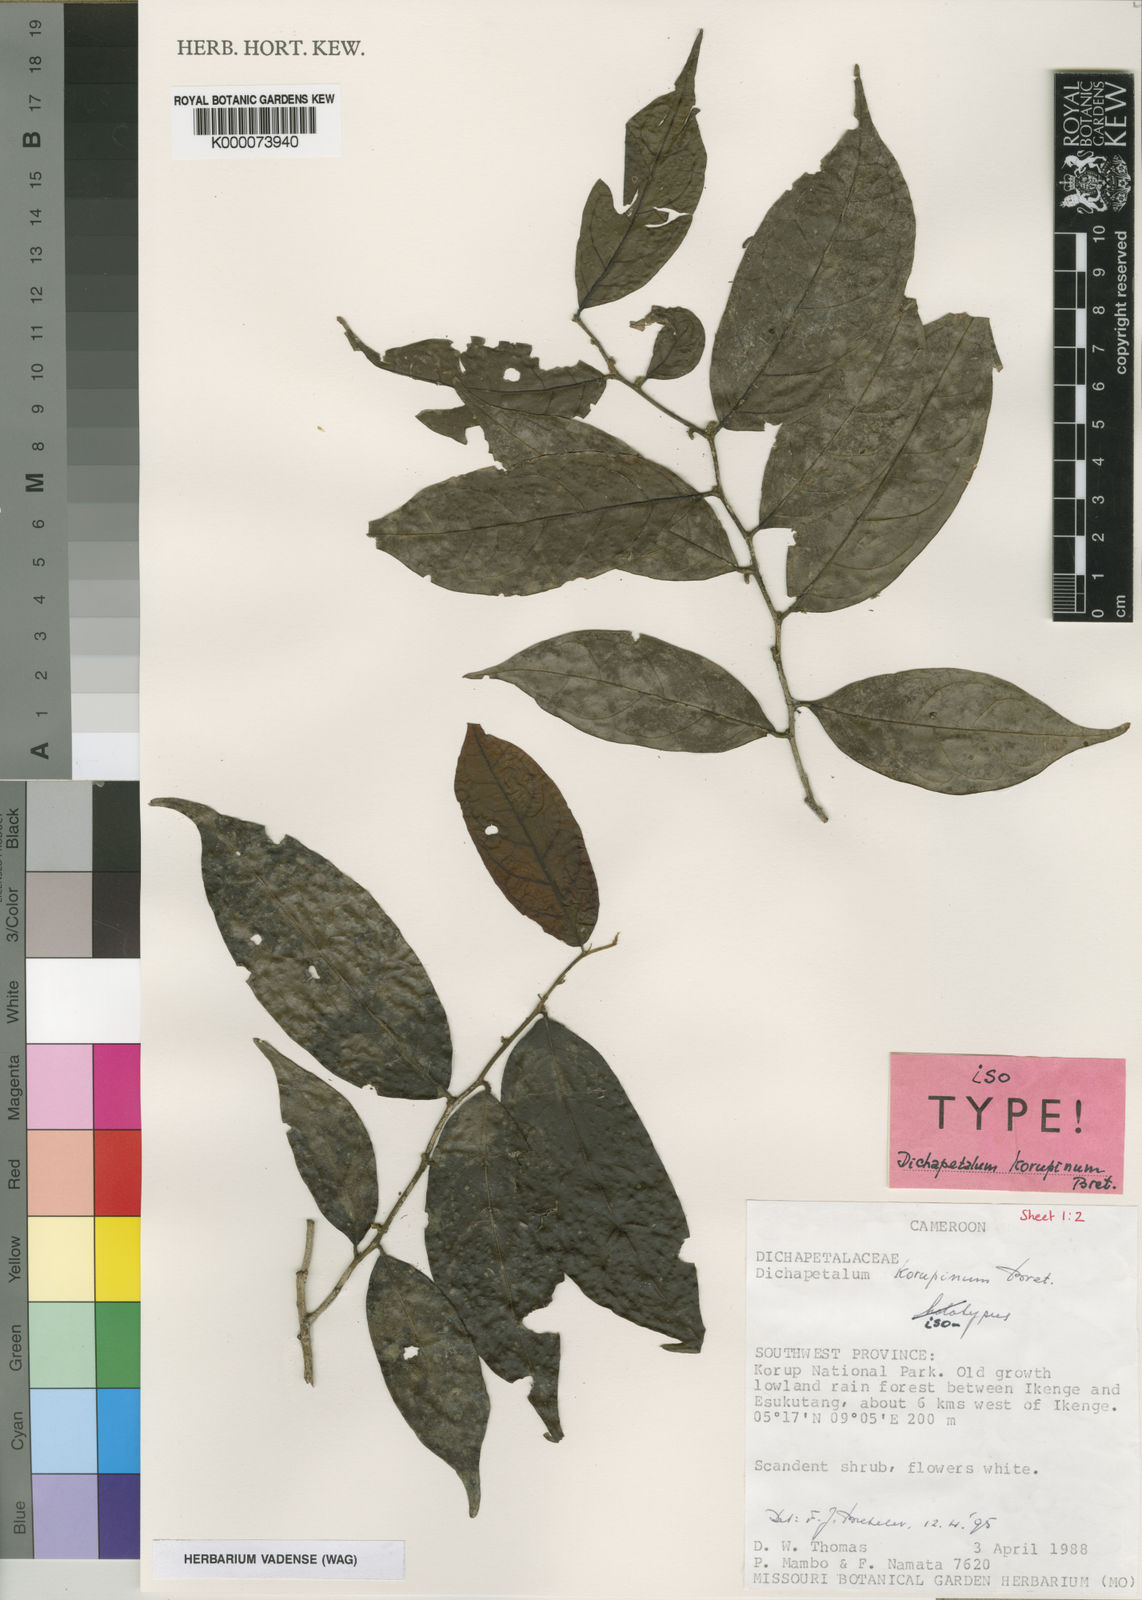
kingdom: Plantae
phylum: Tracheophyta
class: Magnoliopsida
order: Malpighiales
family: Dichapetalaceae
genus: Dichapetalum
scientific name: Dichapetalum korupinum
